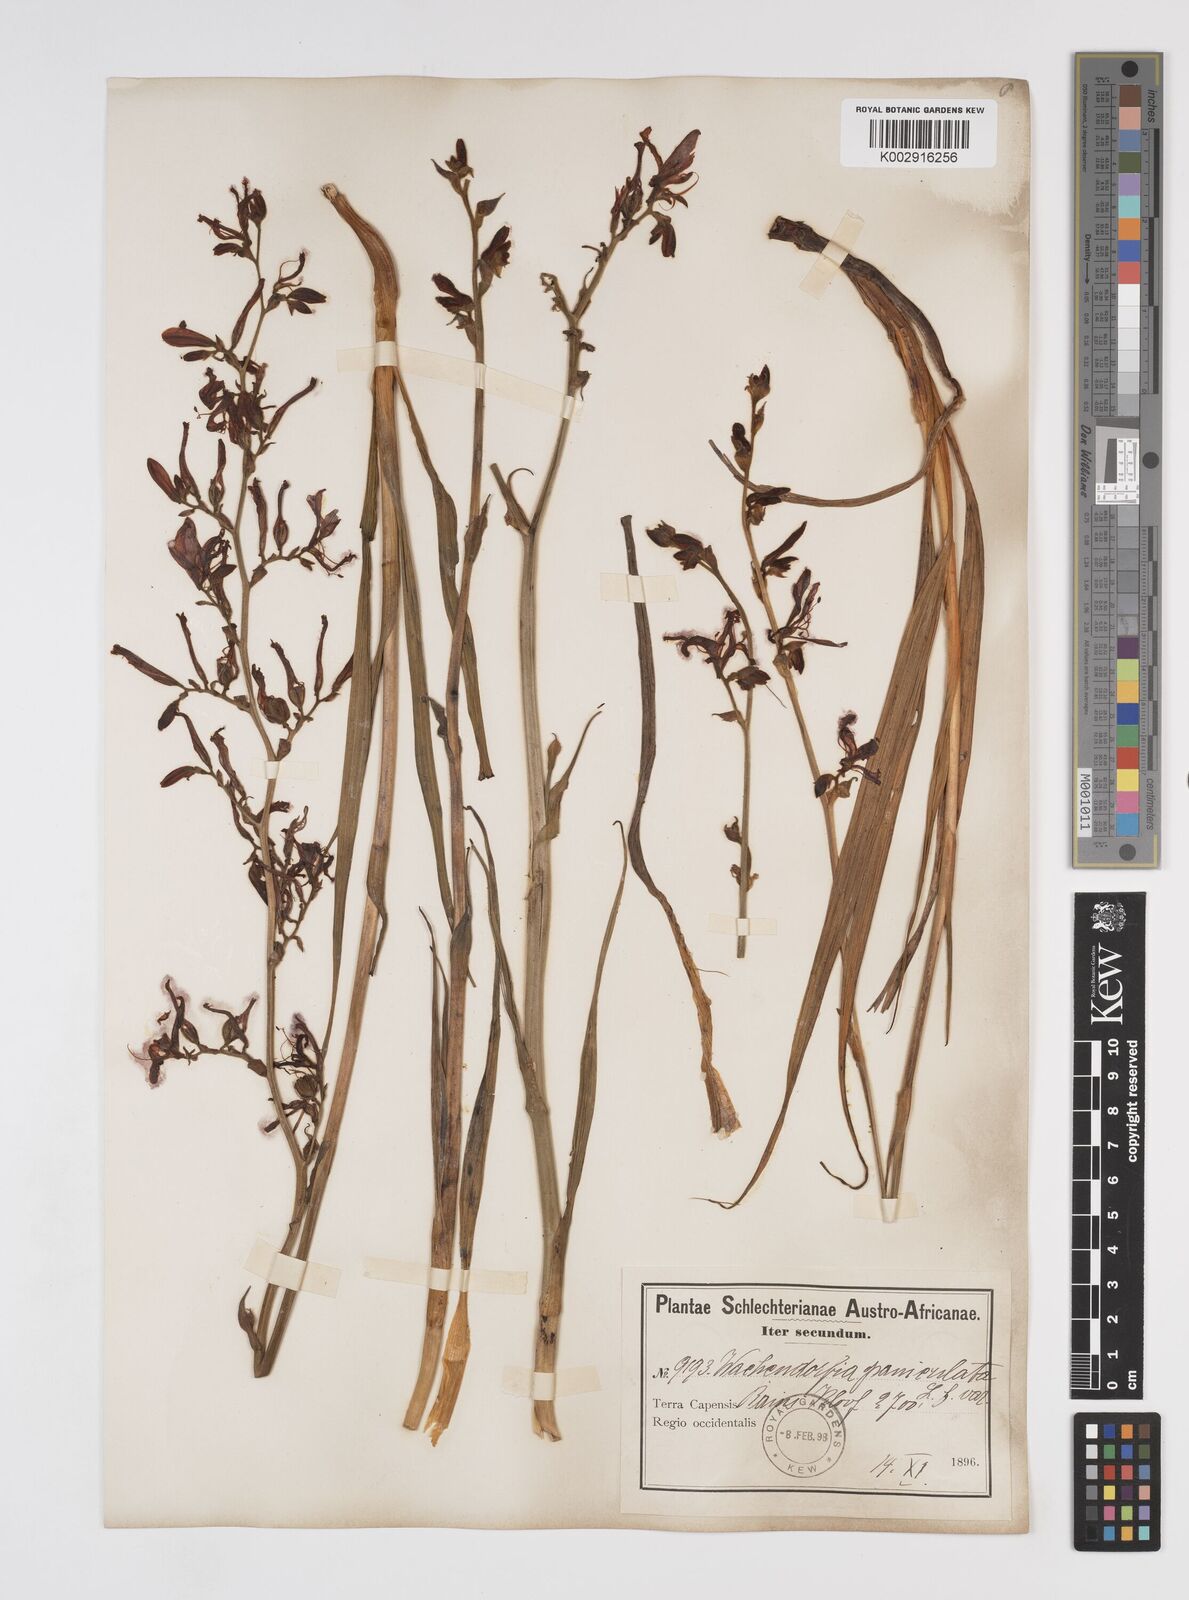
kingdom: Plantae
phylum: Tracheophyta
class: Liliopsida
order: Commelinales
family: Haemodoraceae
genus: Wachendorfia
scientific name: Wachendorfia paniculata
